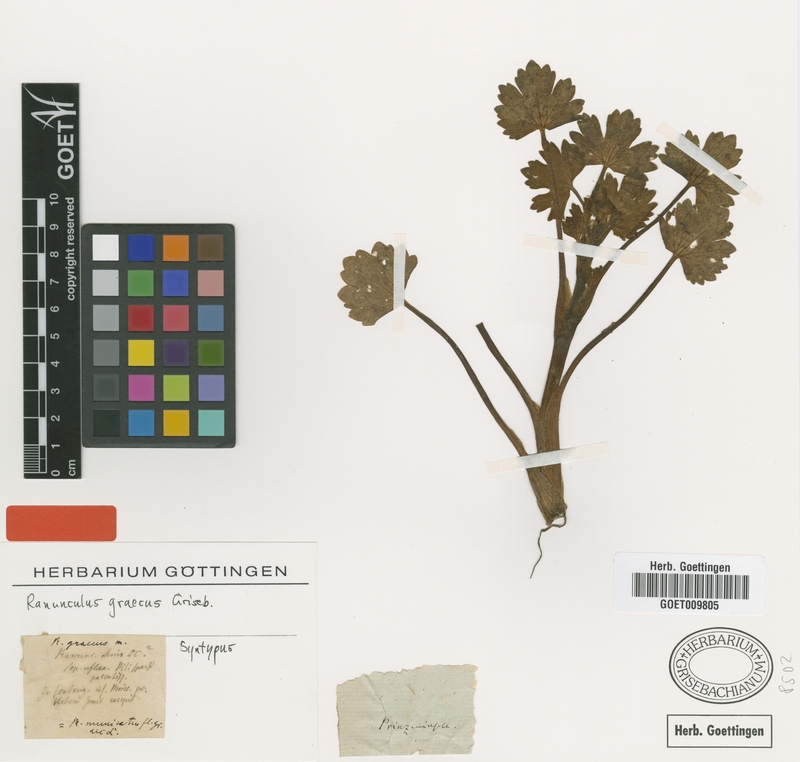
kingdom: Plantae
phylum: Tracheophyta
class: Magnoliopsida
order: Ranunculales
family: Ranunculaceae
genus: Ranunculus
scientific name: Ranunculus muricatus
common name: Rough-fruited buttercup
